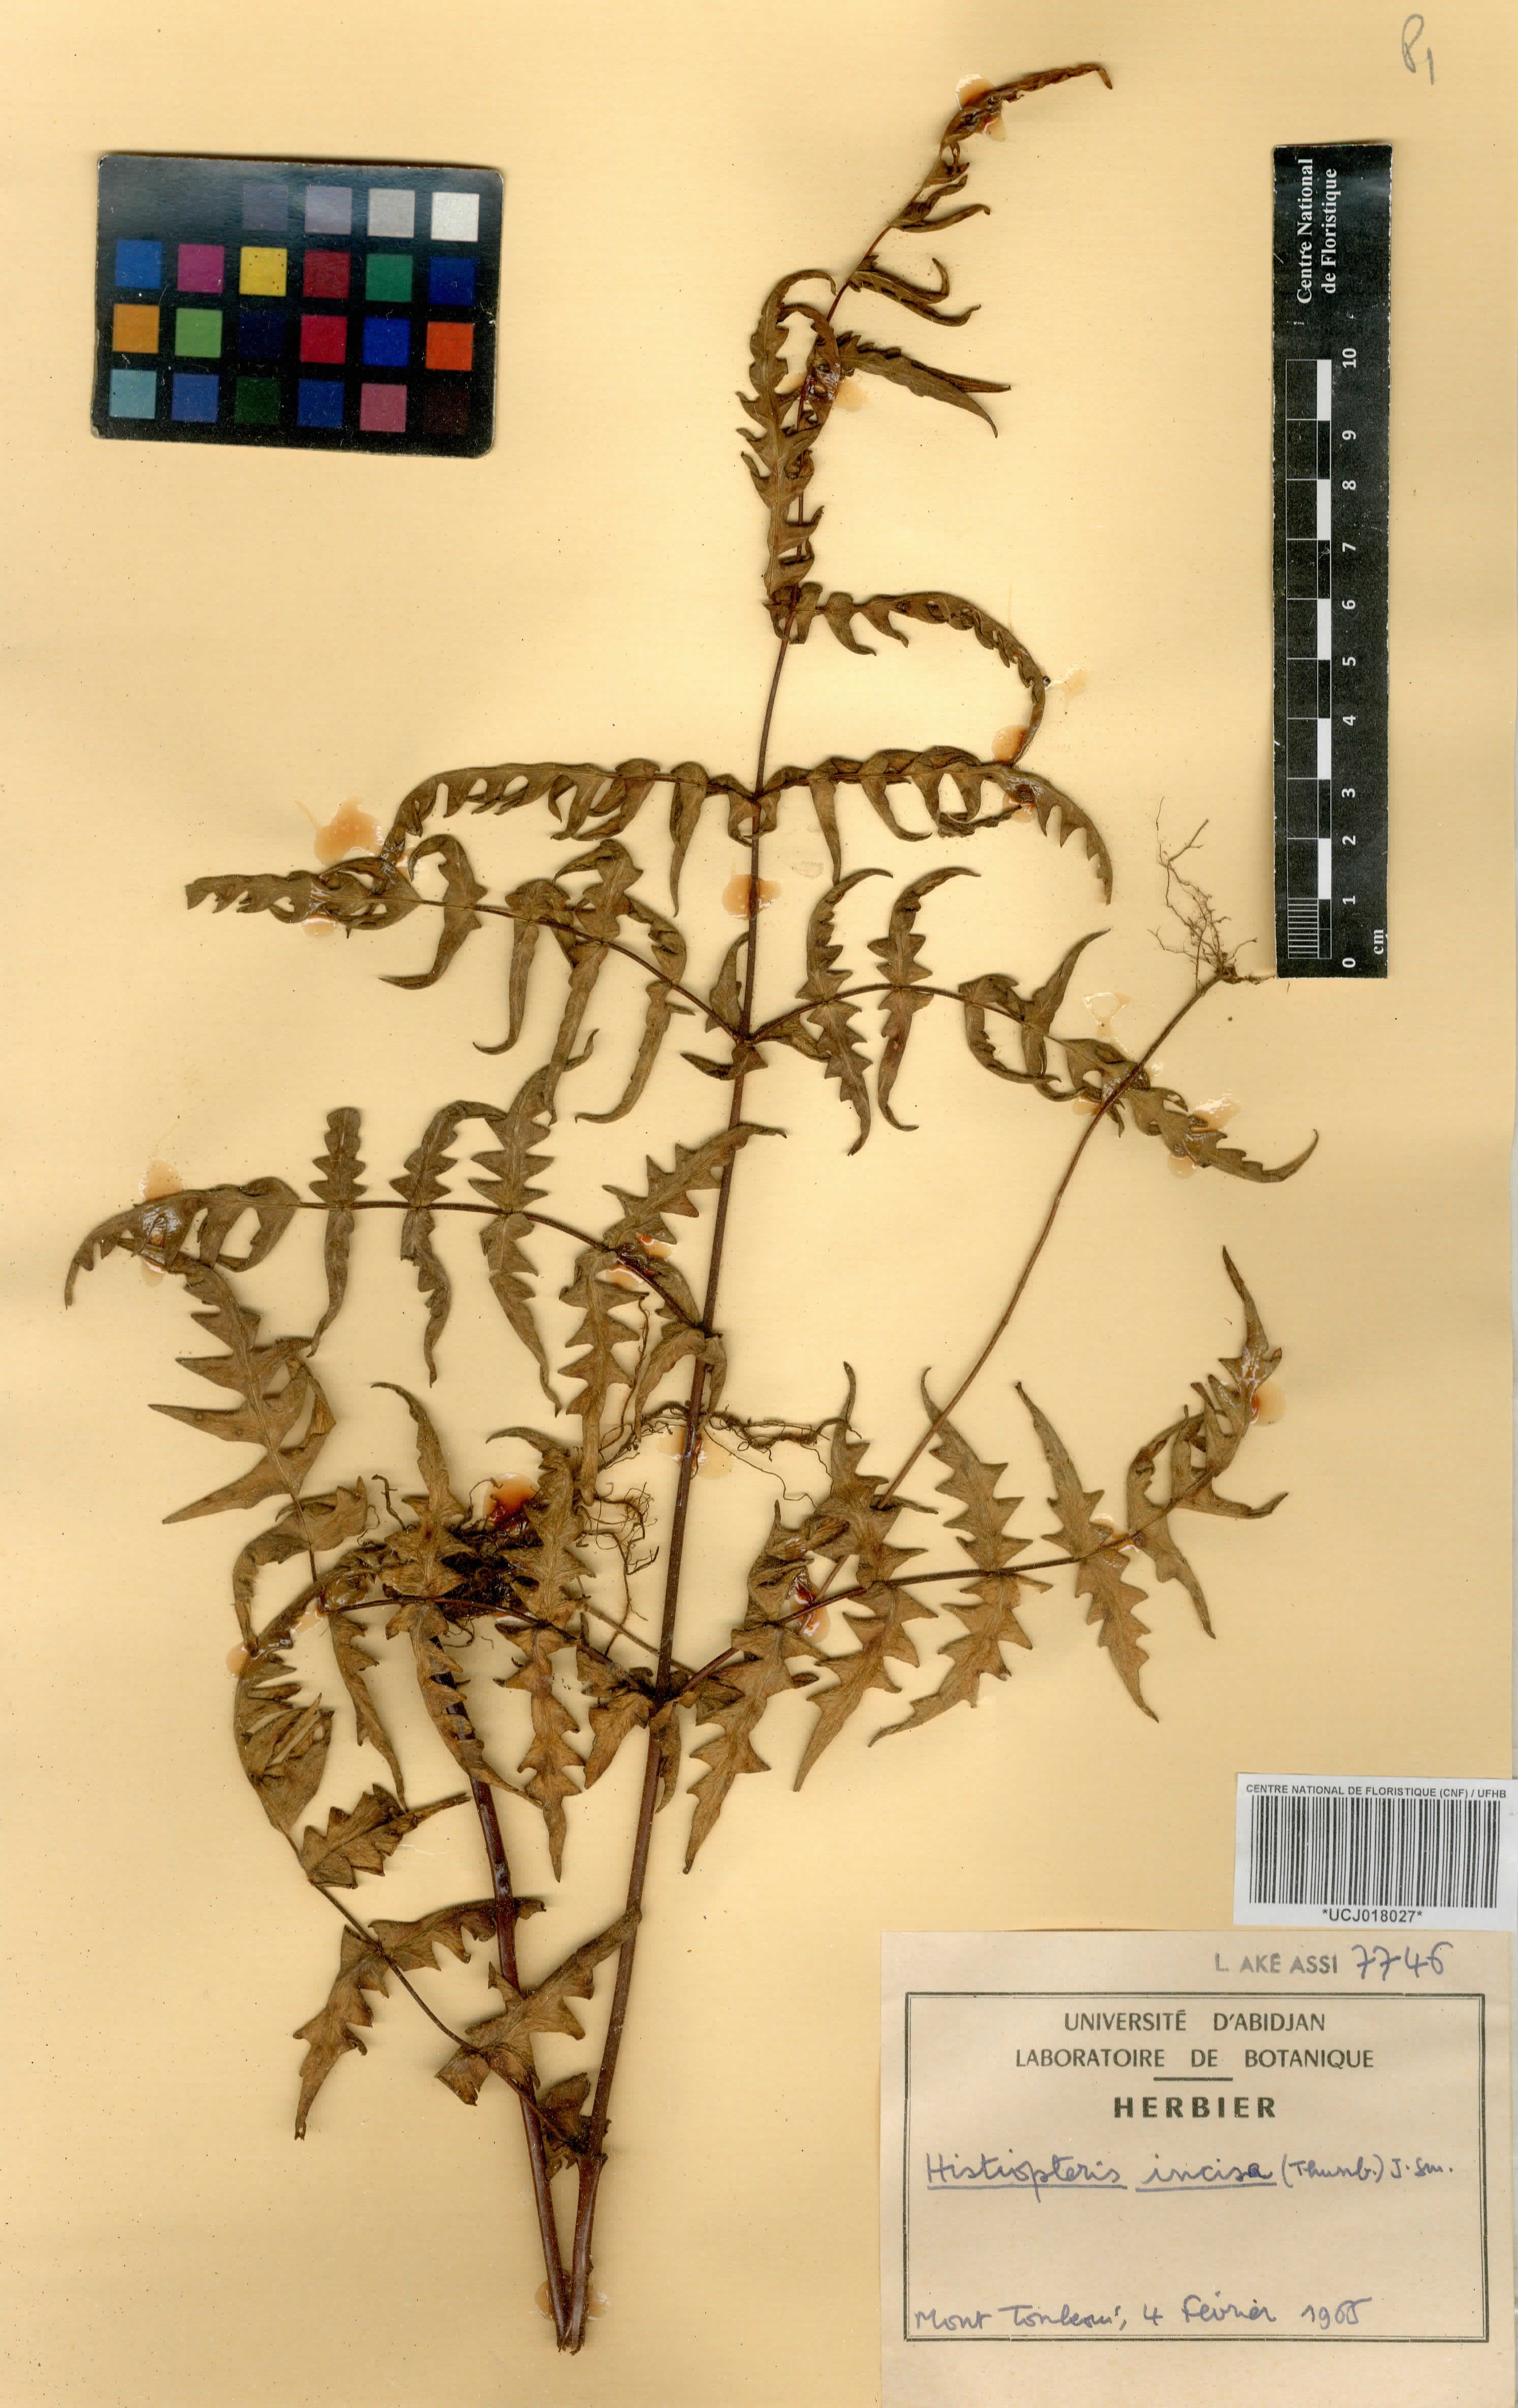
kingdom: Plantae
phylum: Tracheophyta
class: Polypodiopsida
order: Polypodiales
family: Dennstaedtiaceae
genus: Histiopteris
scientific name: Histiopteris incisa
